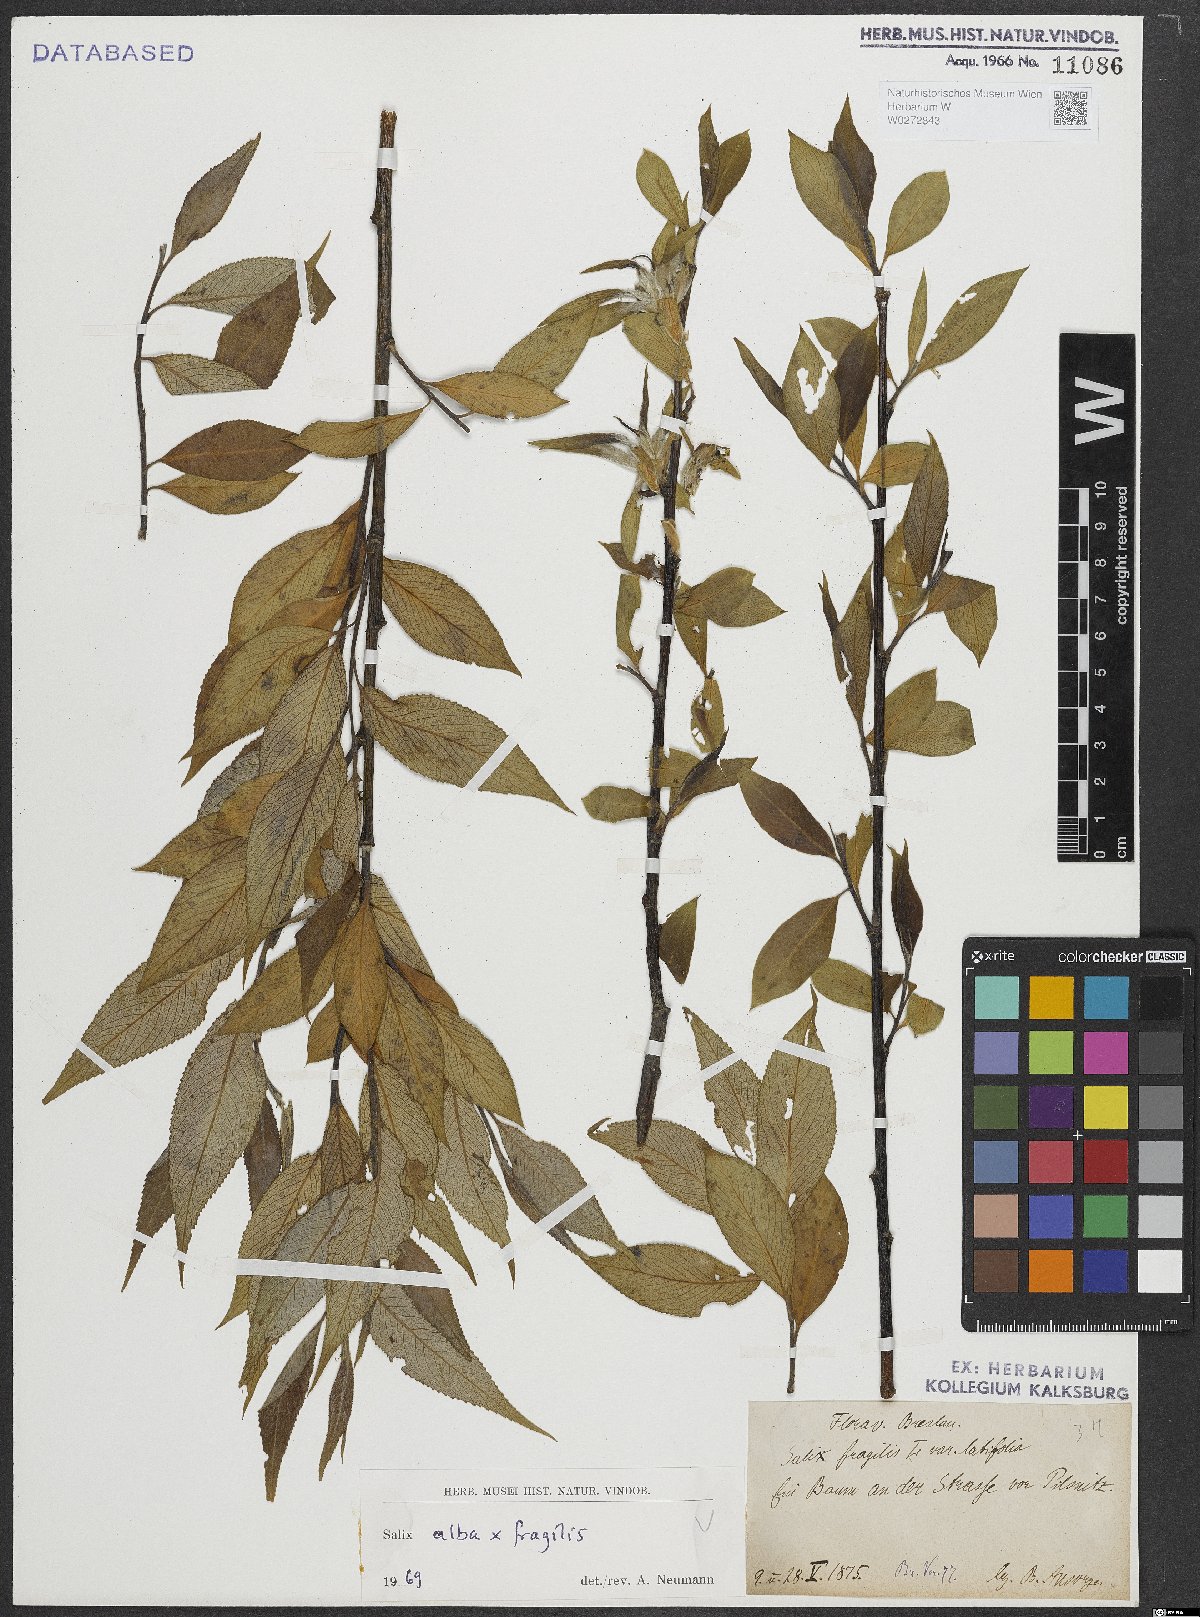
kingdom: Plantae
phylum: Tracheophyta
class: Magnoliopsida
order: Malpighiales
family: Salicaceae
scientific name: Salicaceae
